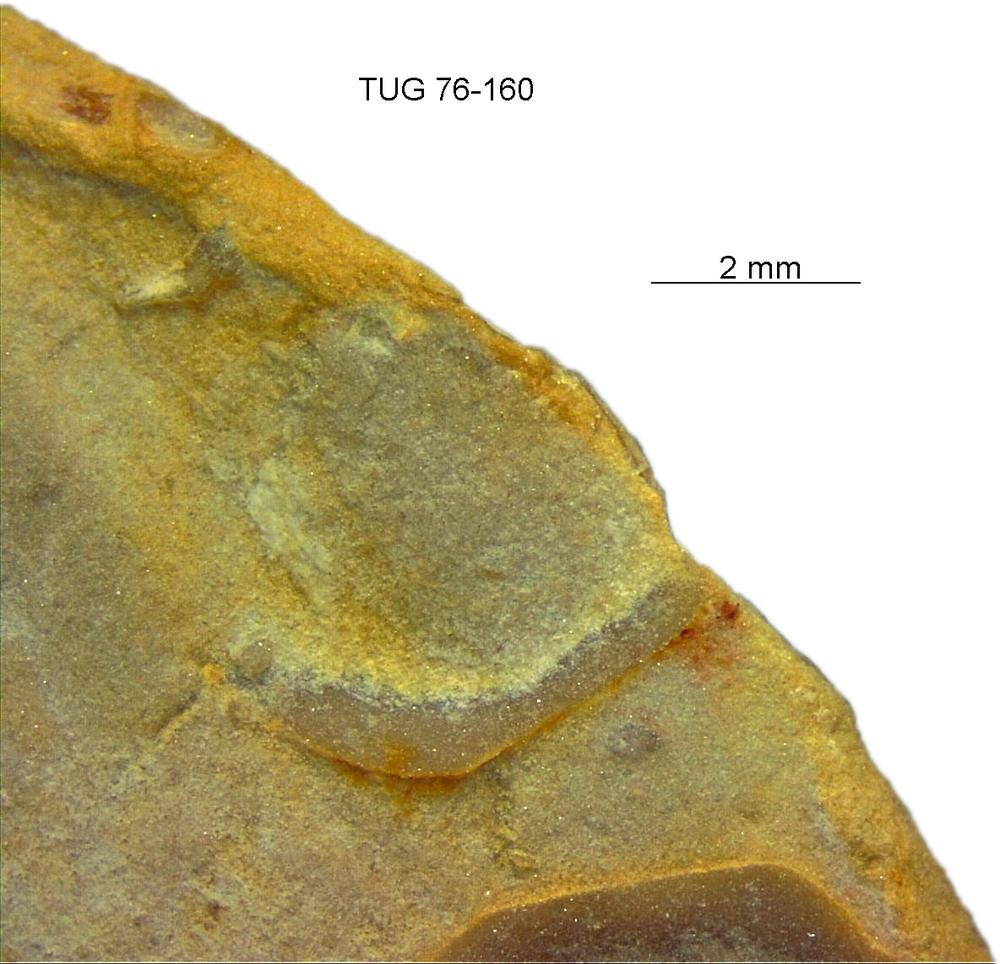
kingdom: Animalia
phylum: Brachiopoda
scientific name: Brachiopoda
